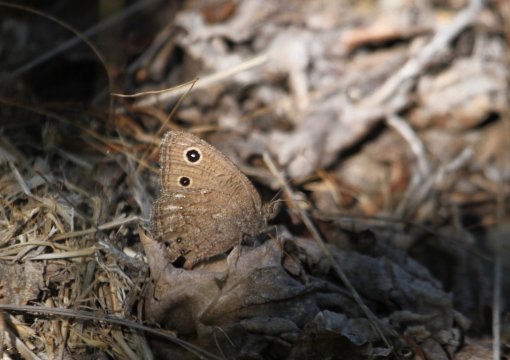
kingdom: Animalia
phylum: Arthropoda
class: Insecta
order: Lepidoptera
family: Nymphalidae
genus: Cercyonis
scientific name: Cercyonis oetus
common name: Small Wood-Nymph
